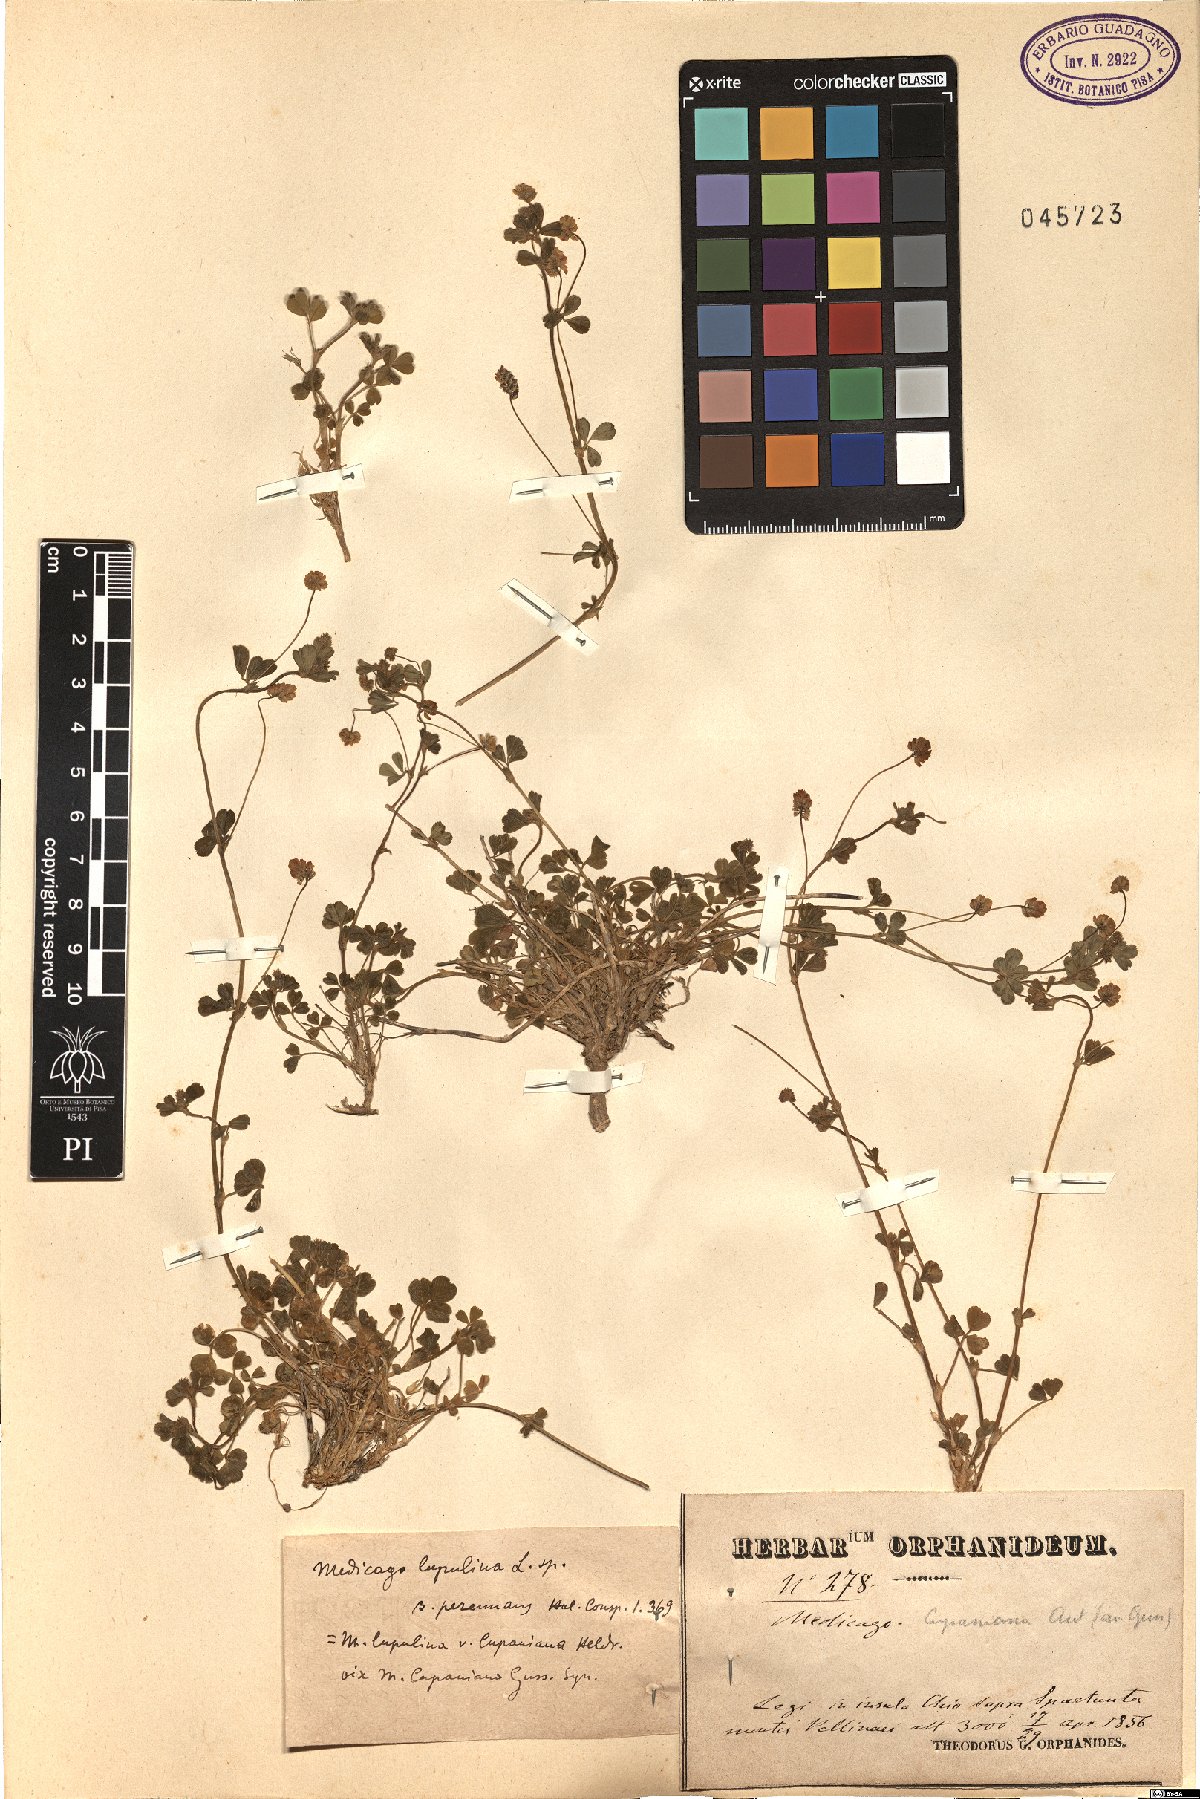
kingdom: Plantae
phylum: Tracheophyta
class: Magnoliopsida
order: Fabales
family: Fabaceae
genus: Medicago
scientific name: Medicago lupulina
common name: Black medick
